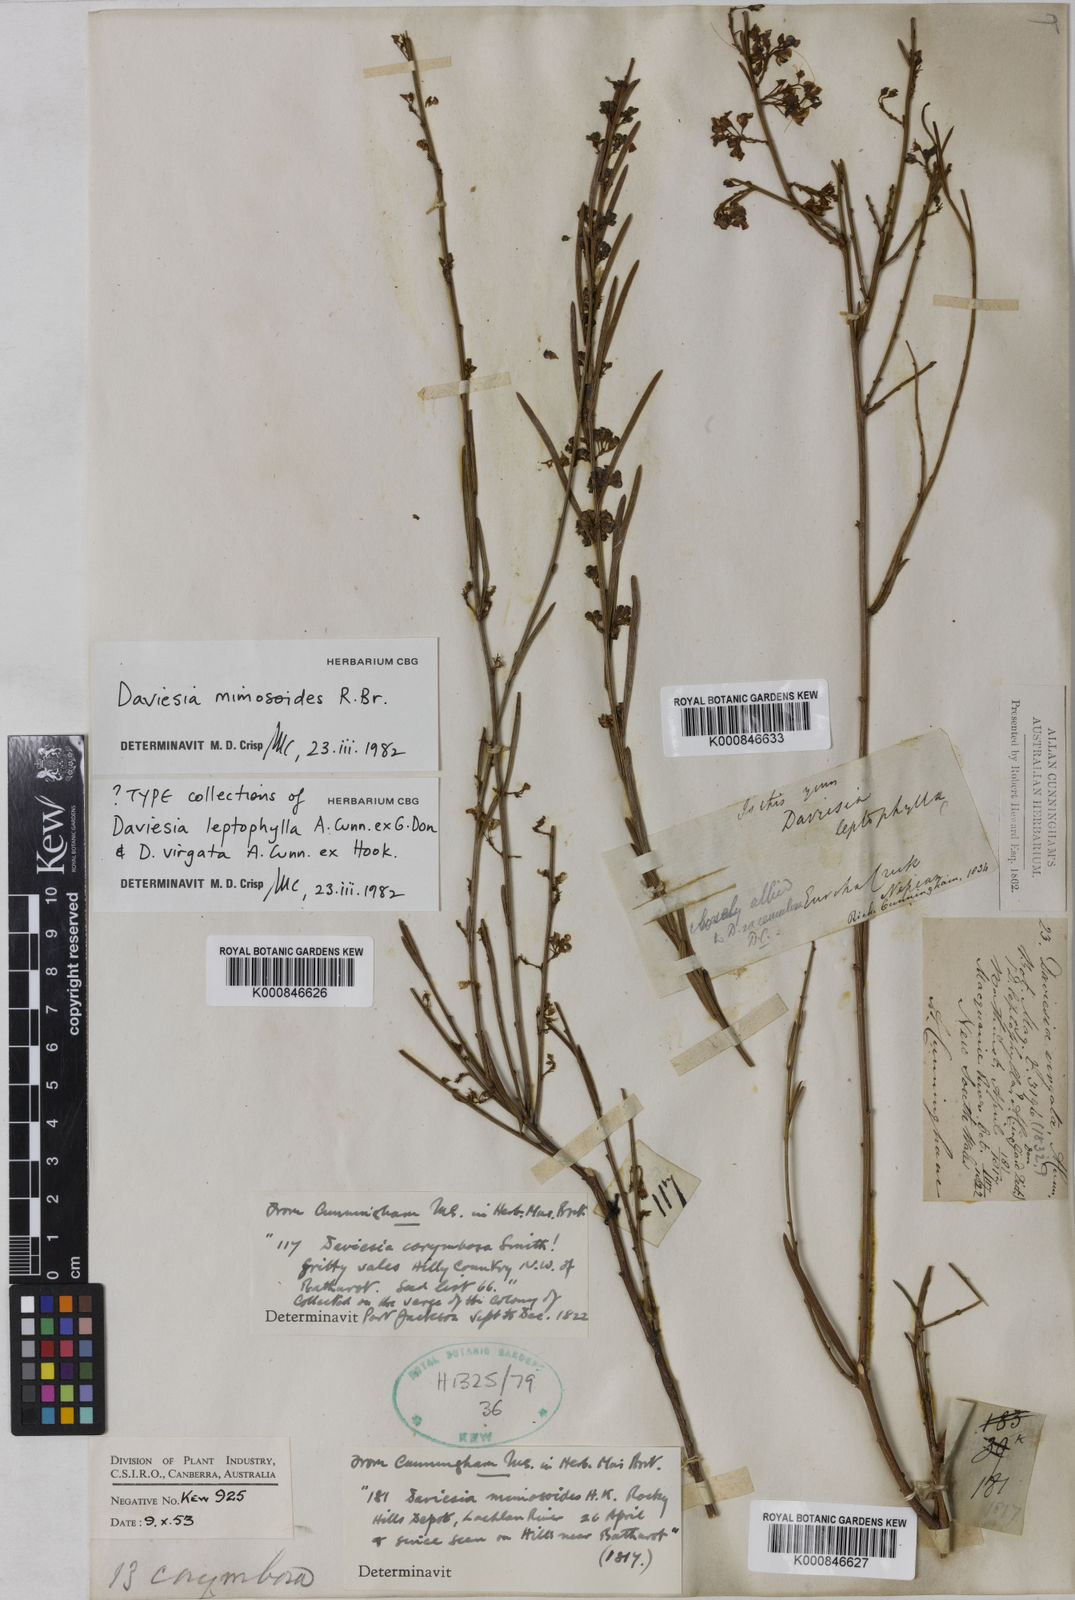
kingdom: Plantae
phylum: Tracheophyta
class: Magnoliopsida
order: Fabales
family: Fabaceae
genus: Daviesia
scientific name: Daviesia mimosoides
